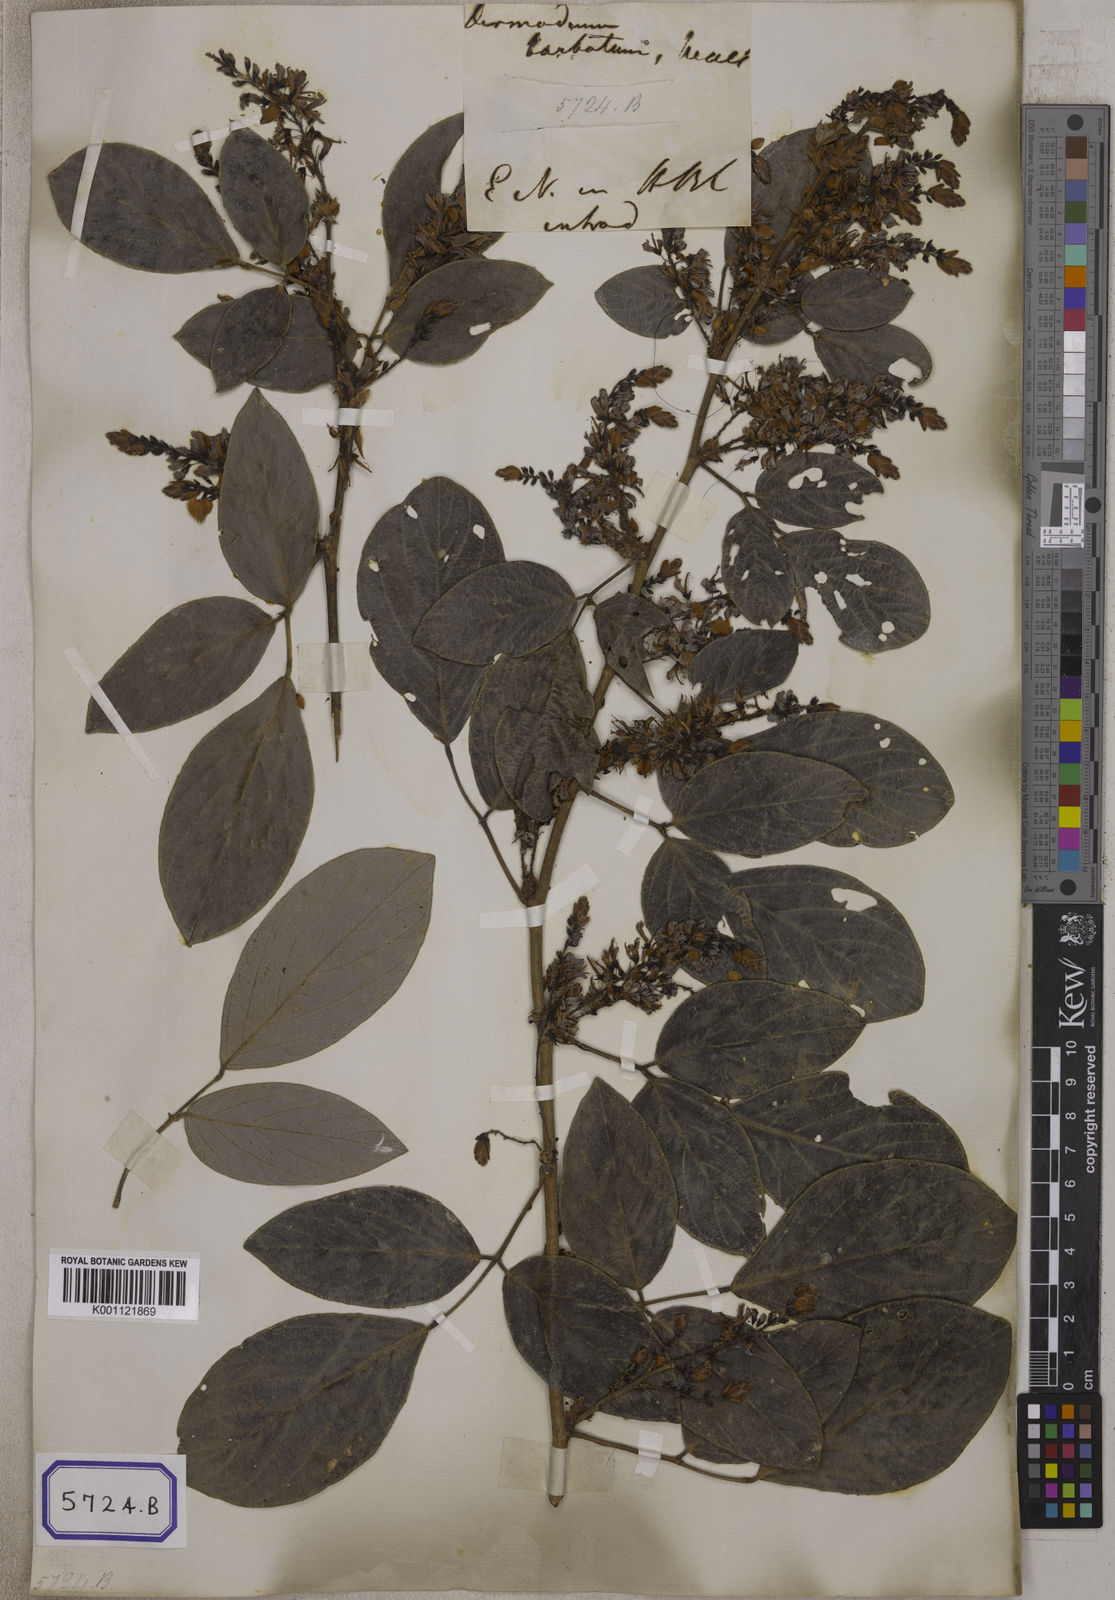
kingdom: Plantae
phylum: Tracheophyta
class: Magnoliopsida
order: Fabales
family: Fabaceae
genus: Desmodium
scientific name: Desmodium
